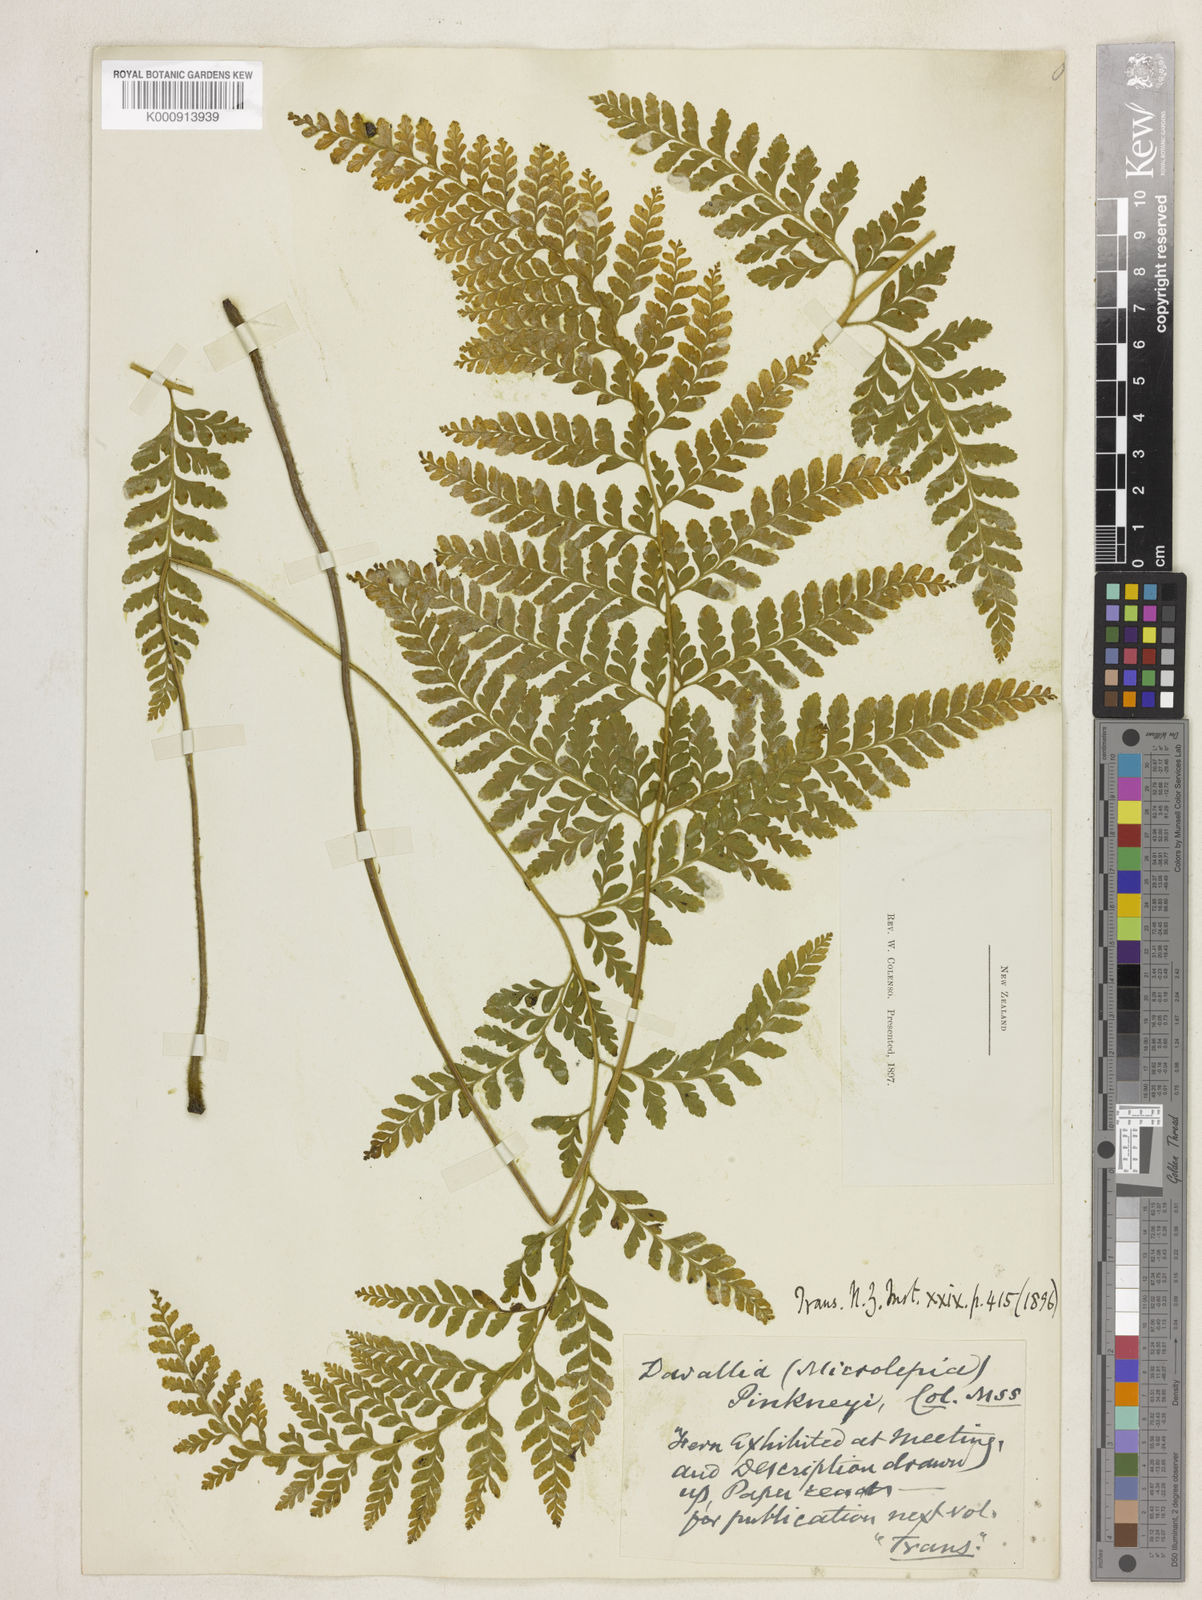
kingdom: Plantae
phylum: Tracheophyta
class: Polypodiopsida
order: Polypodiales
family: Dennstaedtiaceae
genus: Microlepia
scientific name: Microlepia strigosa
